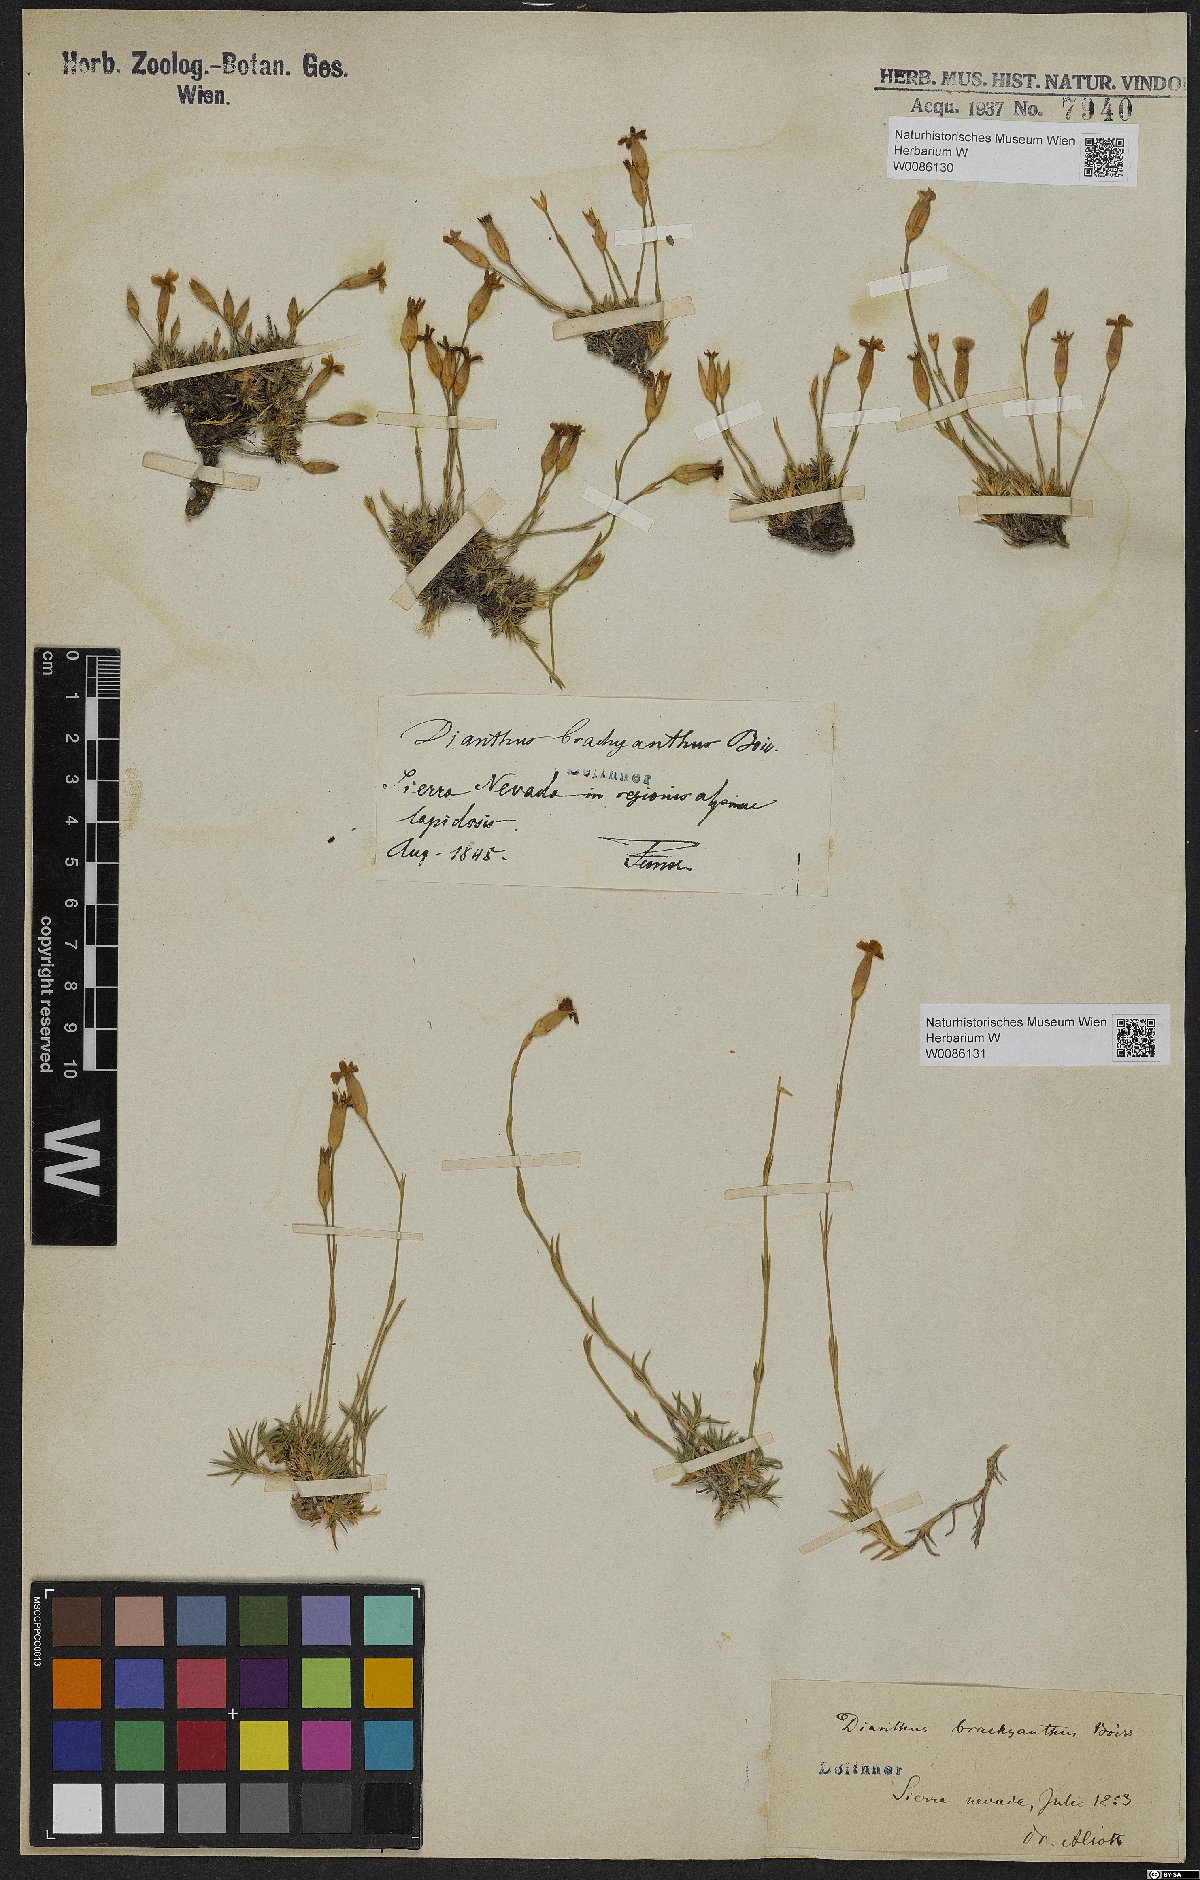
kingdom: Plantae
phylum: Tracheophyta
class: Magnoliopsida
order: Caryophyllales
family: Caryophyllaceae
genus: Dianthus
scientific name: Dianthus pungens
